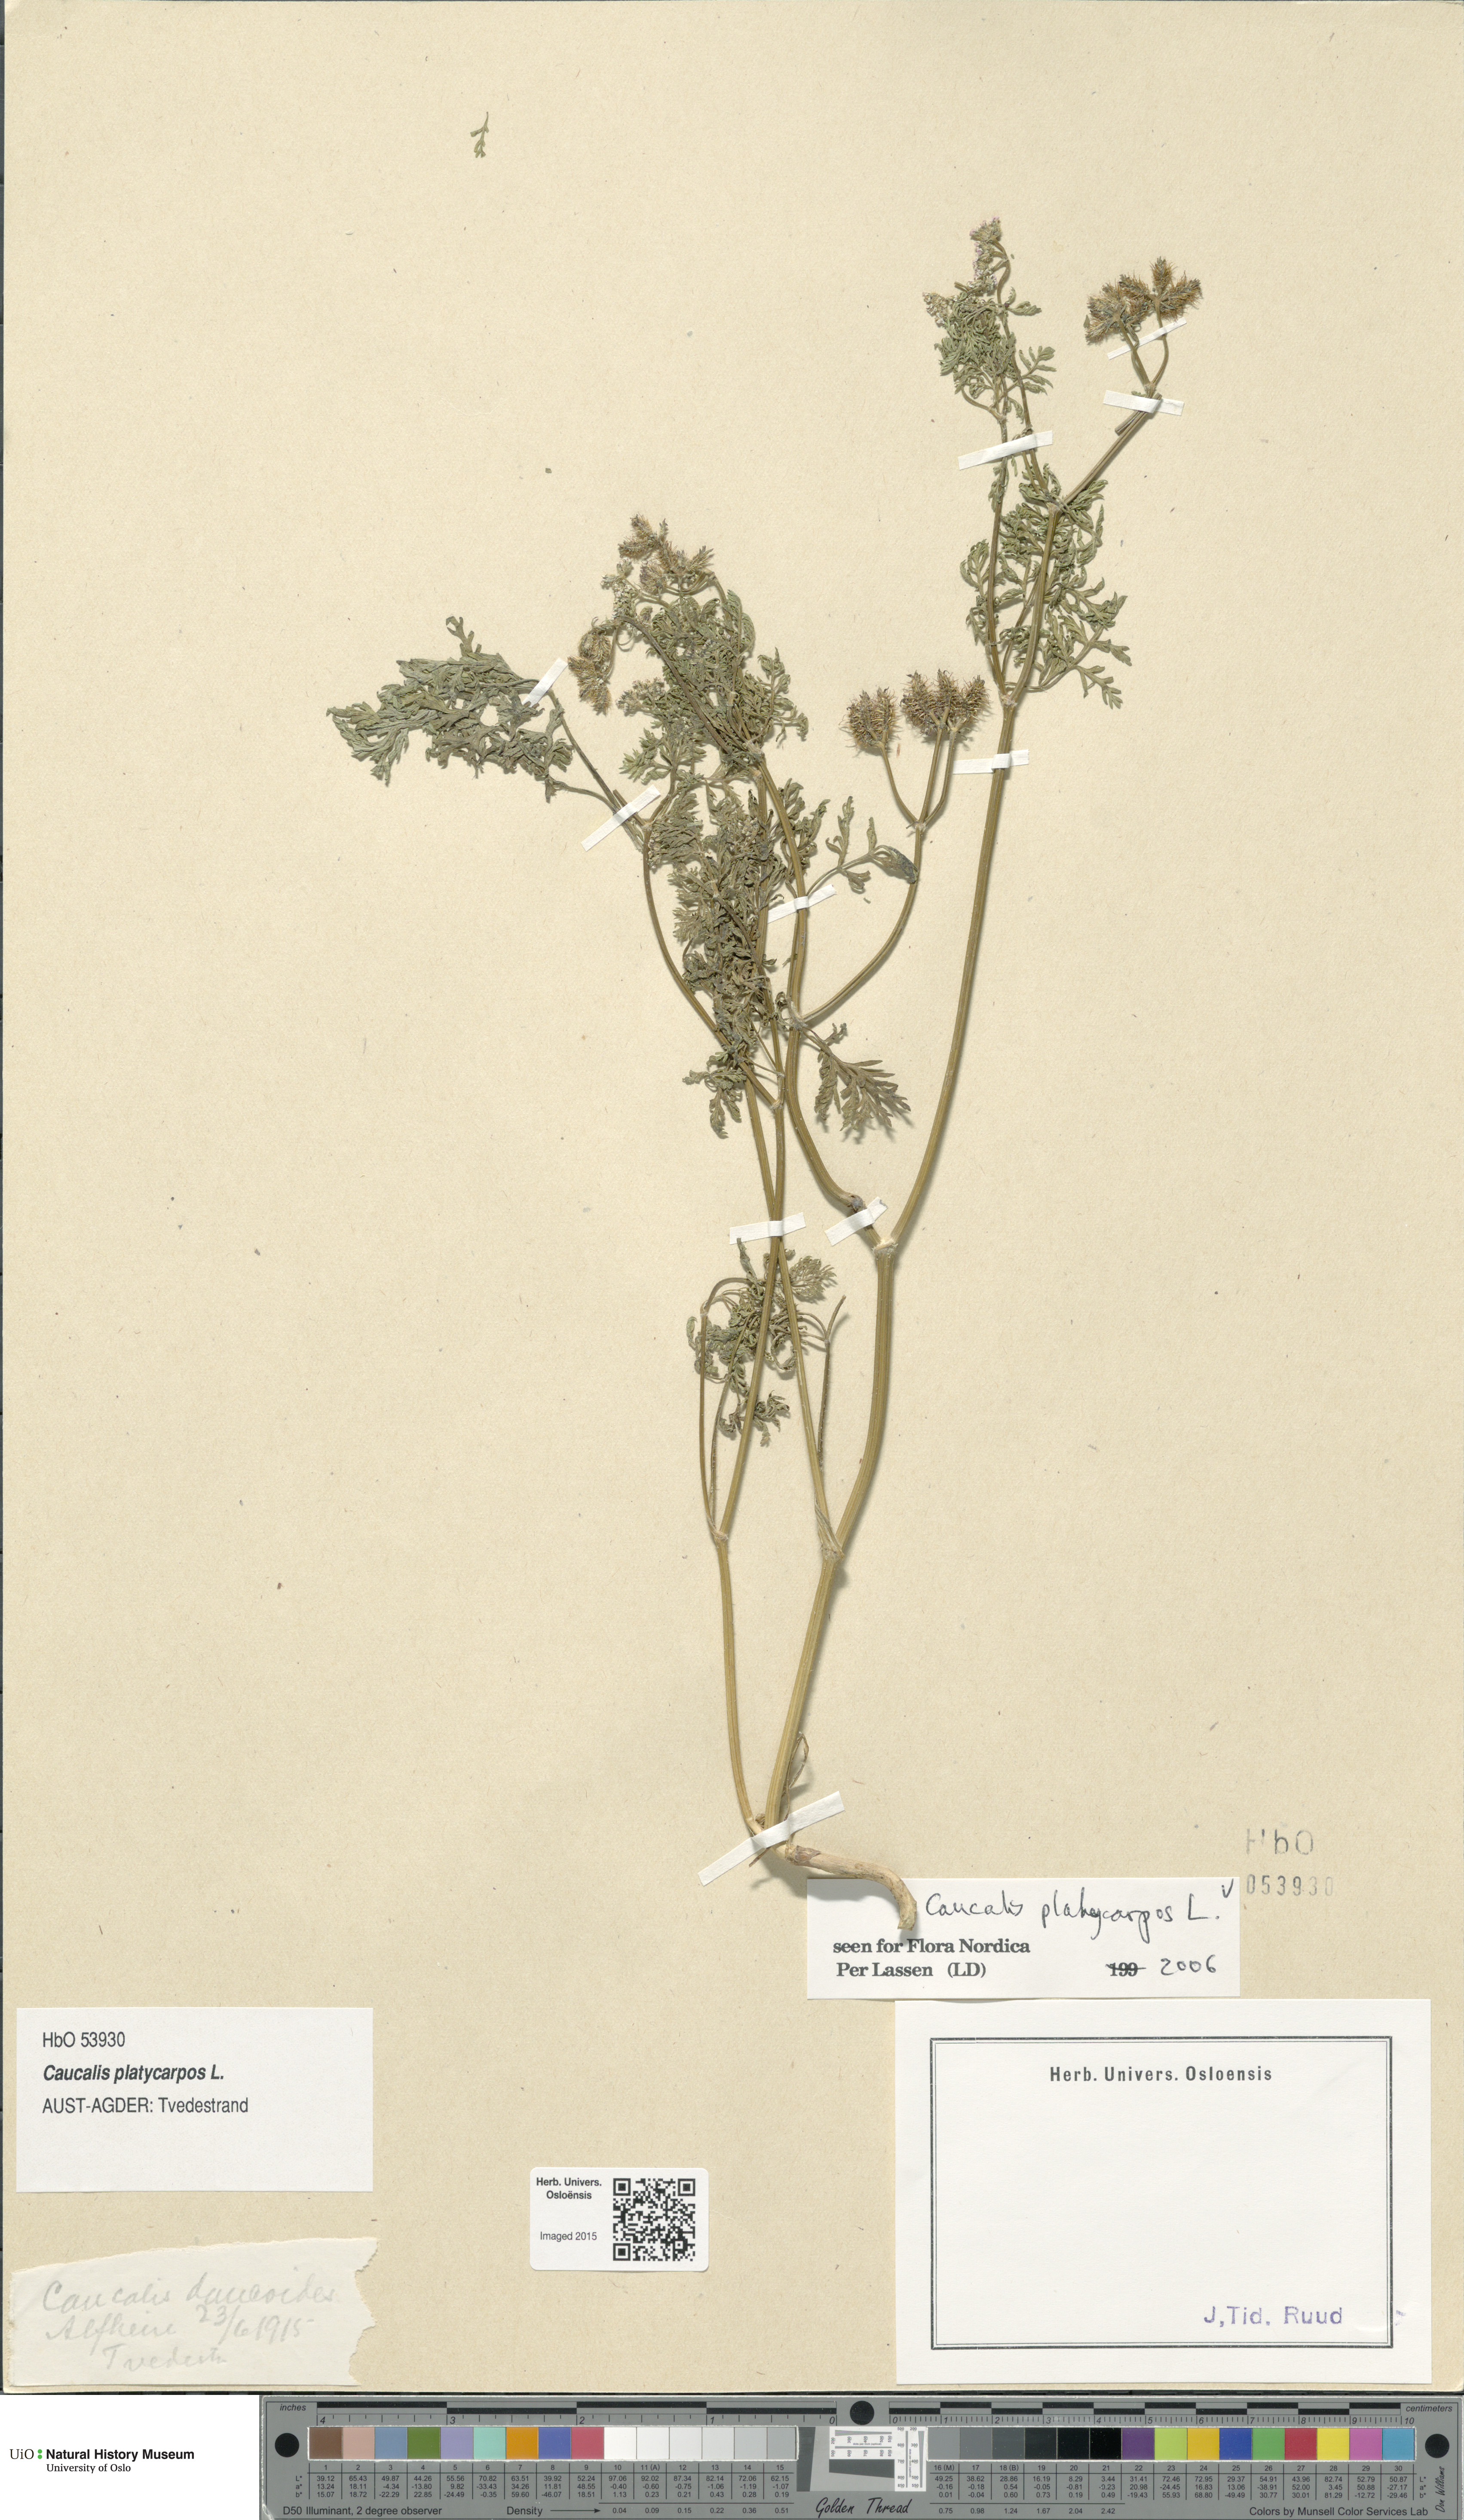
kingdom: Plantae
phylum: Tracheophyta
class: Magnoliopsida
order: Apiales
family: Apiaceae
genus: Caucalis
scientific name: Caucalis platycarpos
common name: Small bur-parsley
